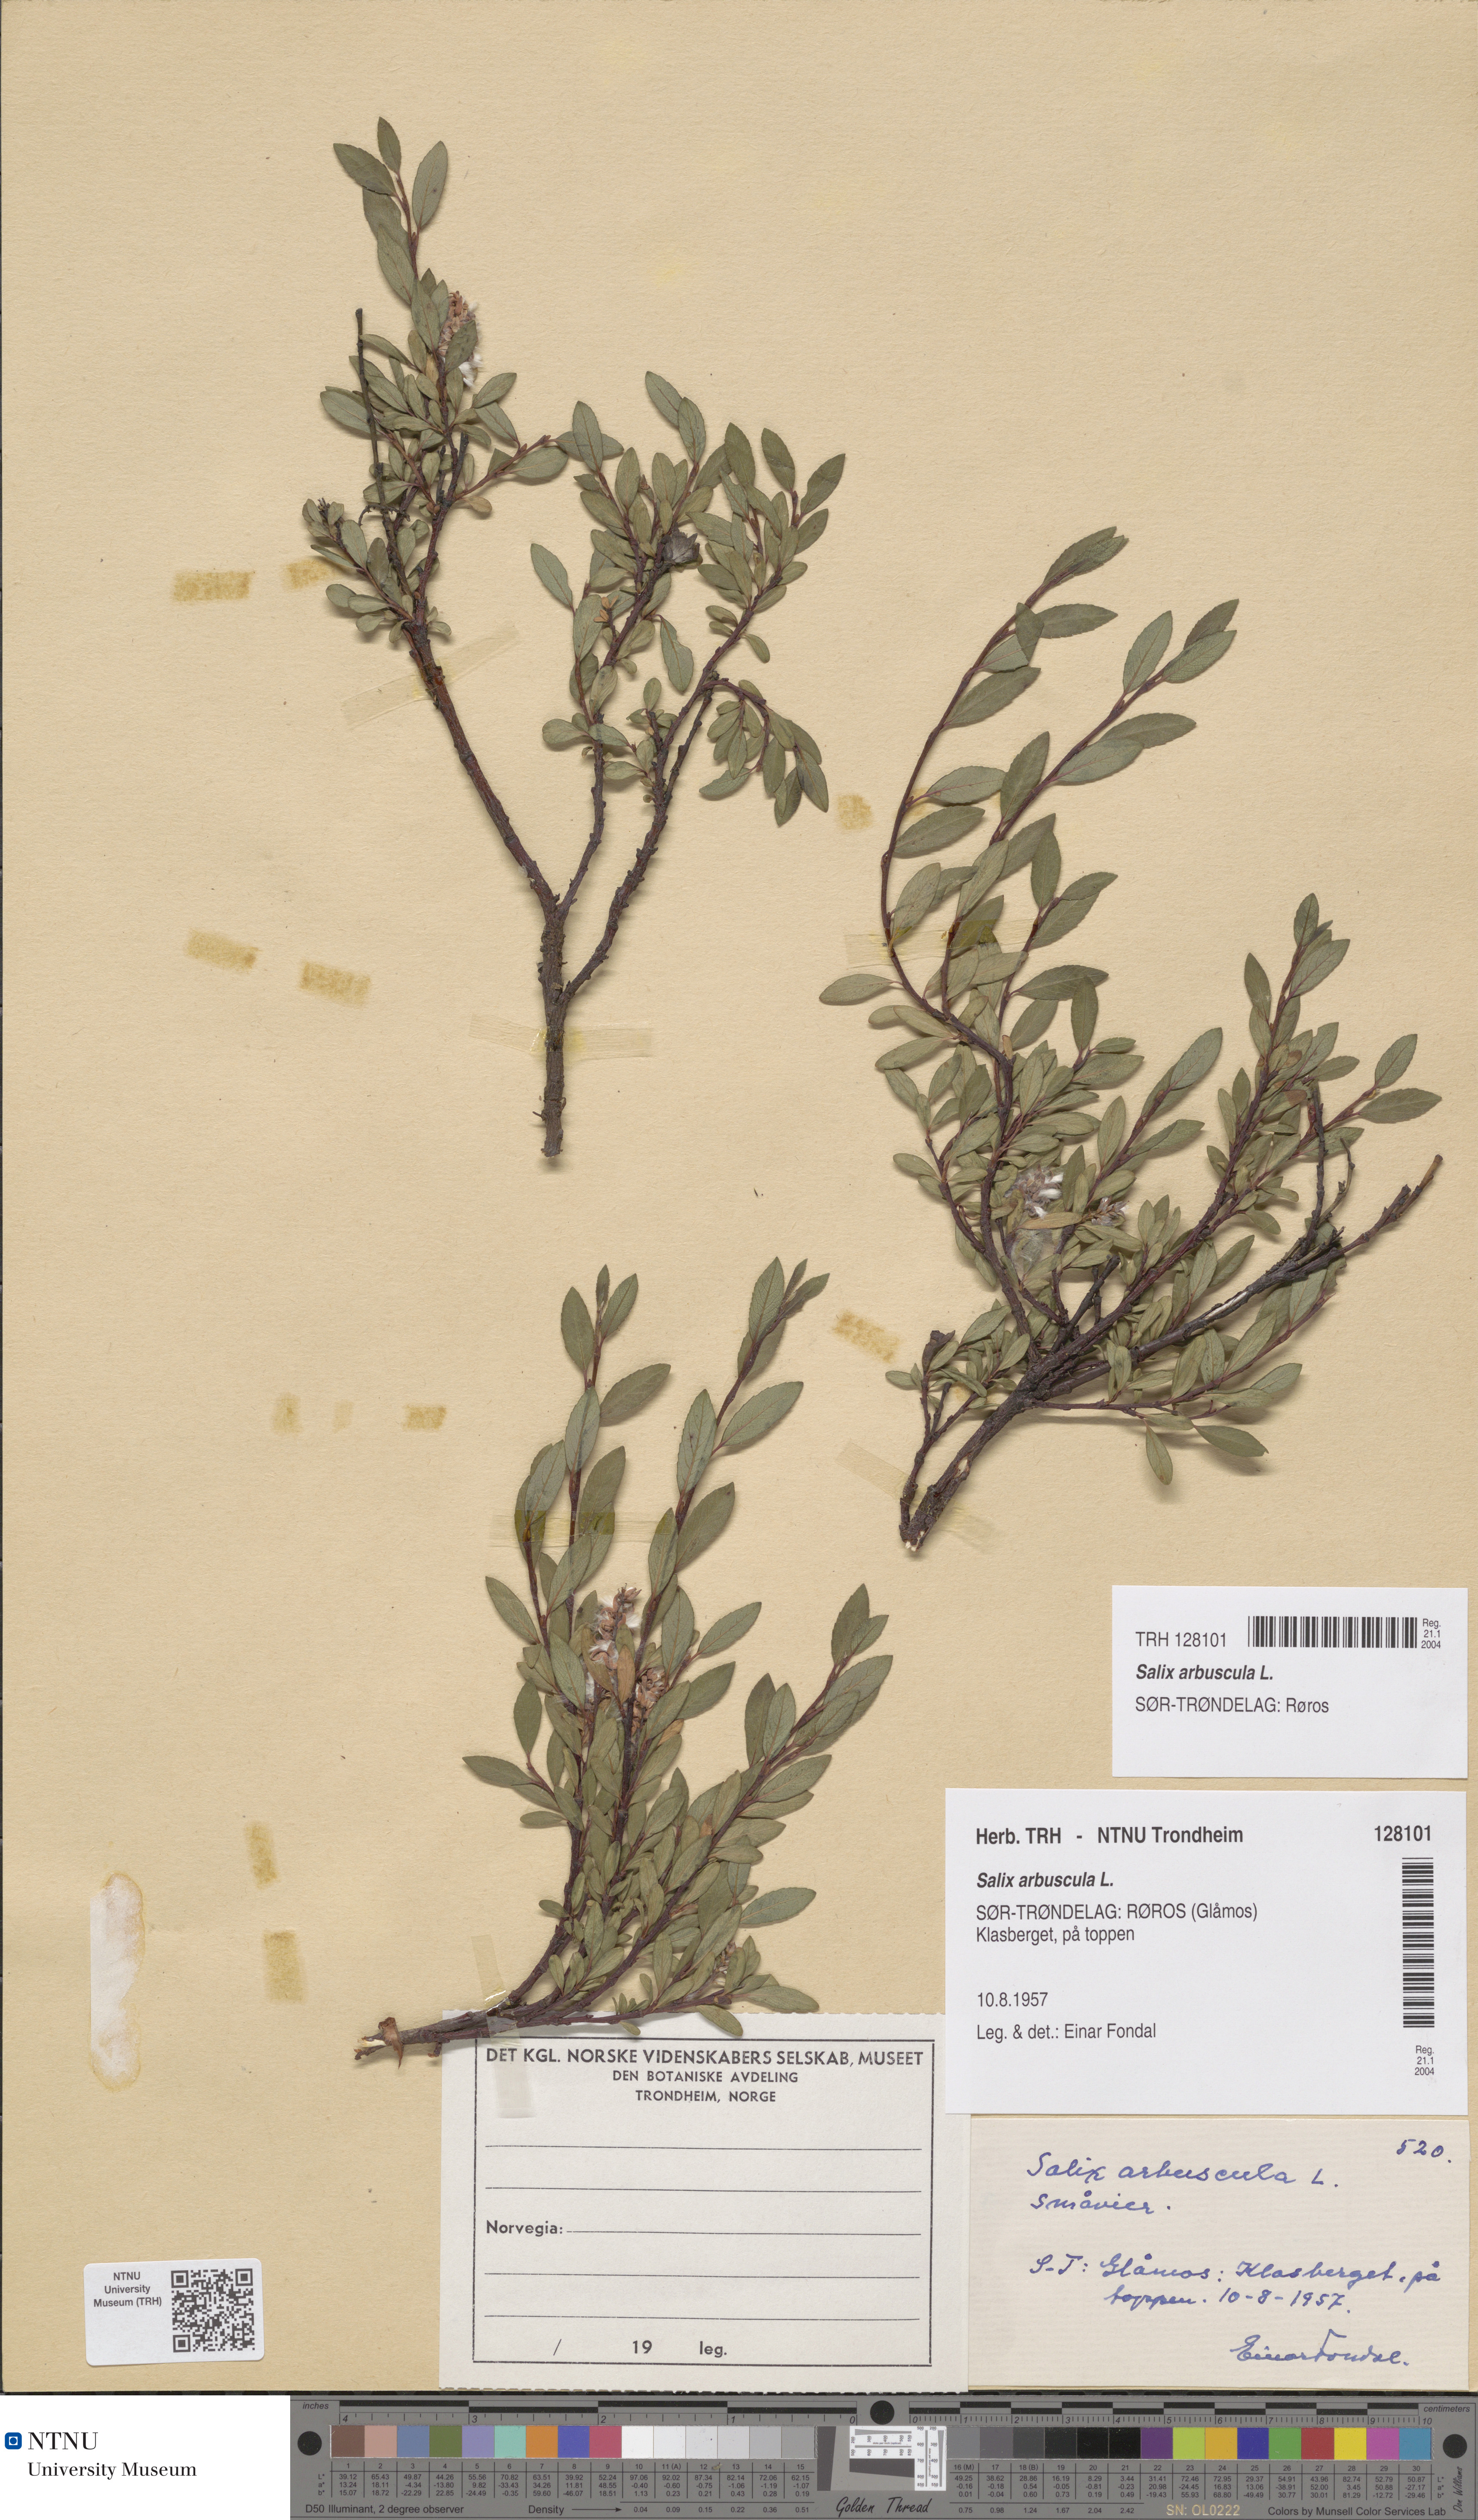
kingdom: Plantae
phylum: Tracheophyta
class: Magnoliopsida
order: Malpighiales
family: Salicaceae
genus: Salix
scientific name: Salix arbuscula
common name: Mountain willow
